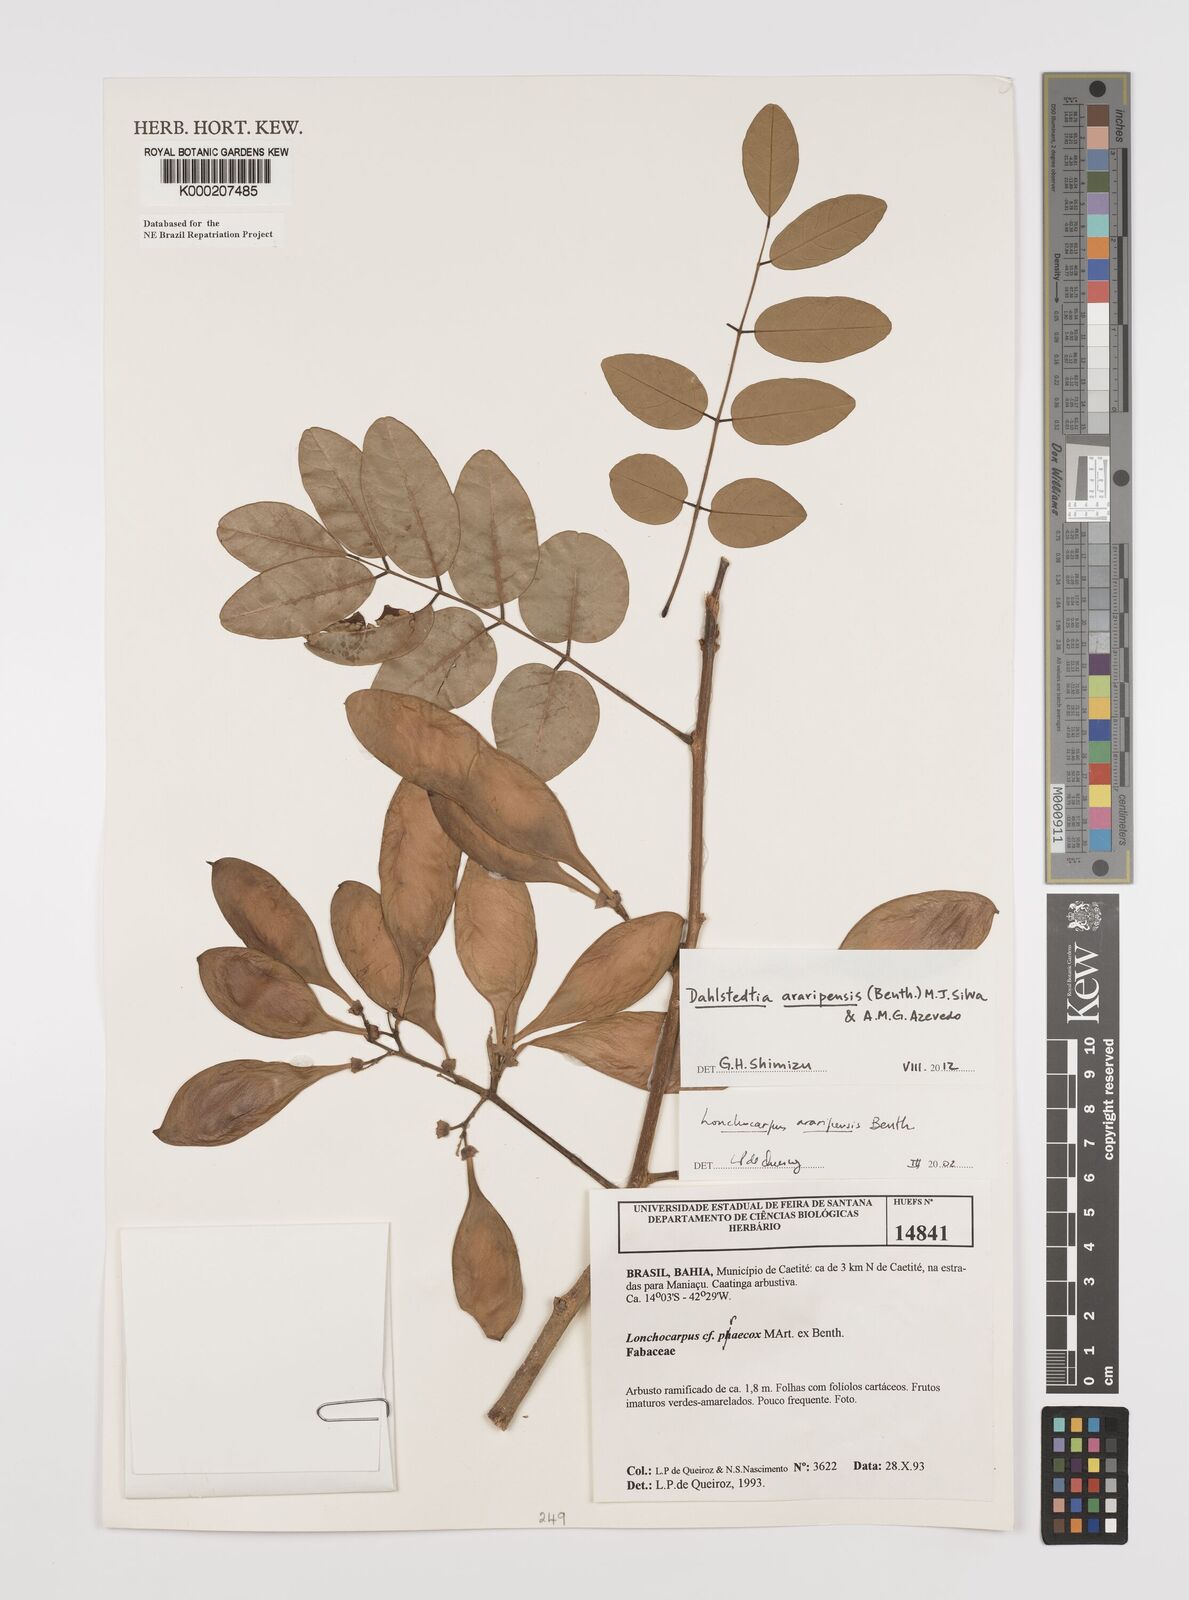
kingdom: Plantae
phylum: Tracheophyta
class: Magnoliopsida
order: Fabales
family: Fabaceae
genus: Dahlstedtia
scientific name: Dahlstedtia araripensis
